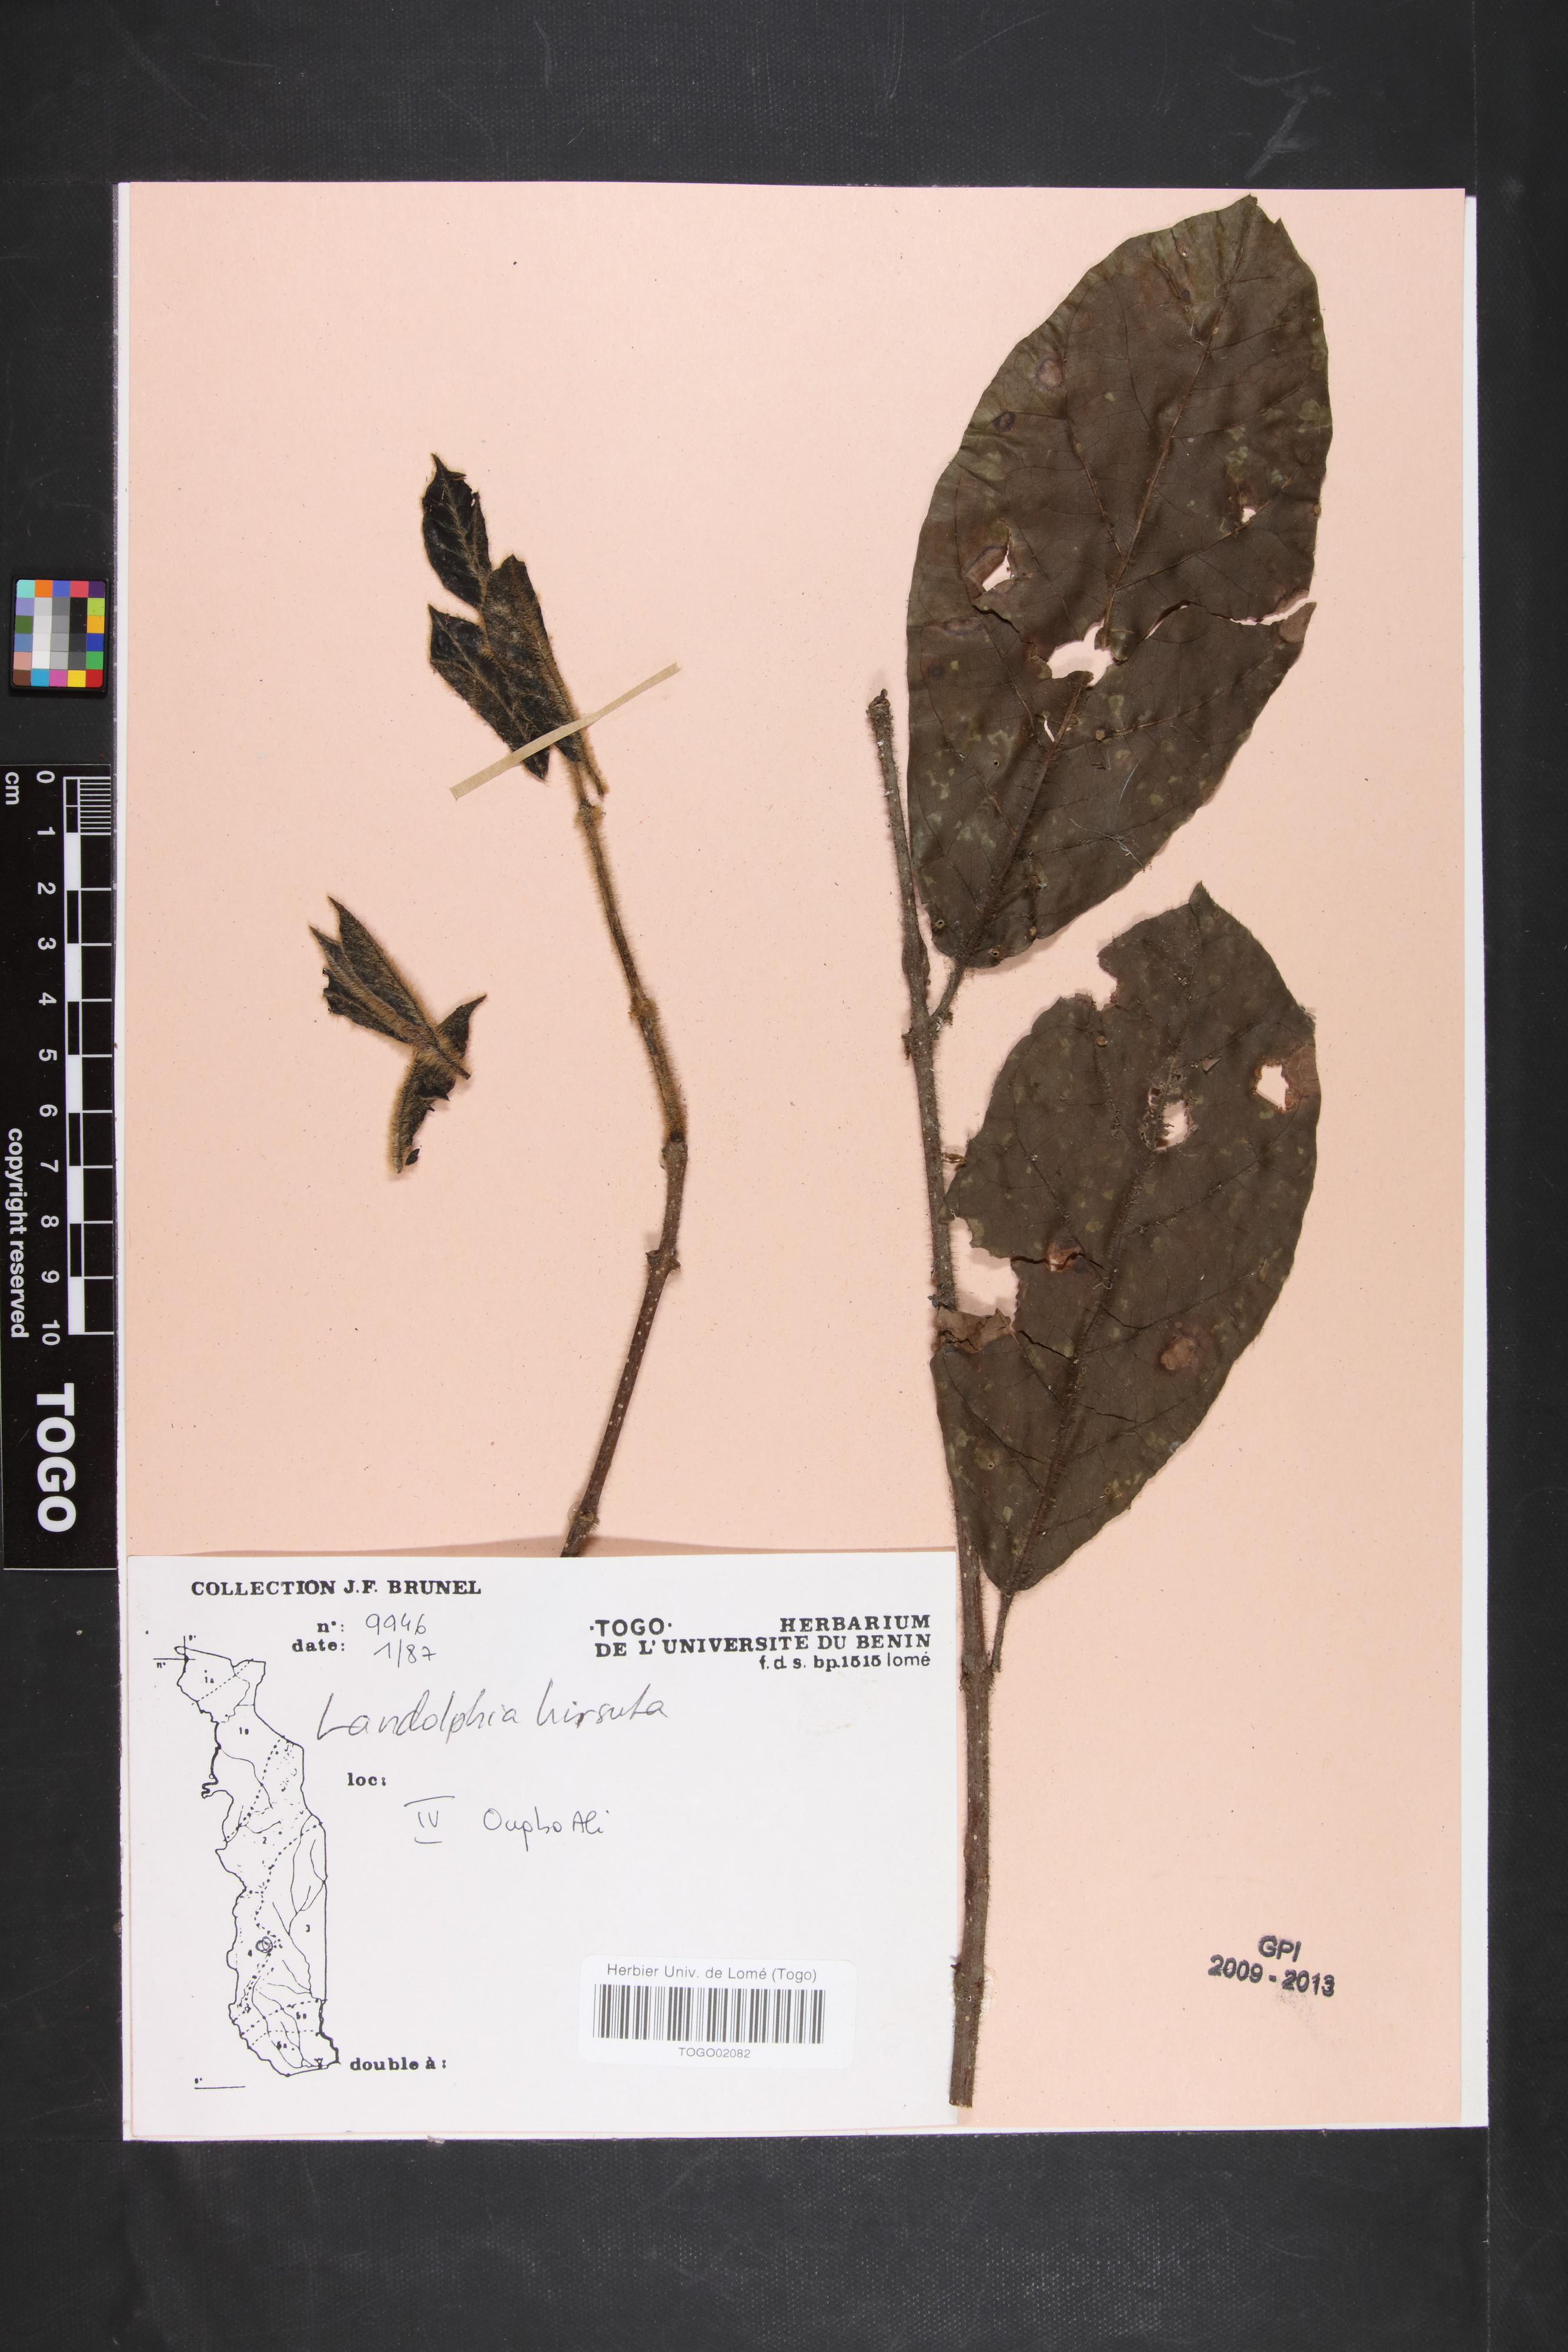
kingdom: Plantae
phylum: Tracheophyta
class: Magnoliopsida
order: Gentianales
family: Apocynaceae
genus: Landolphia
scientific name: Landolphia dulcis
